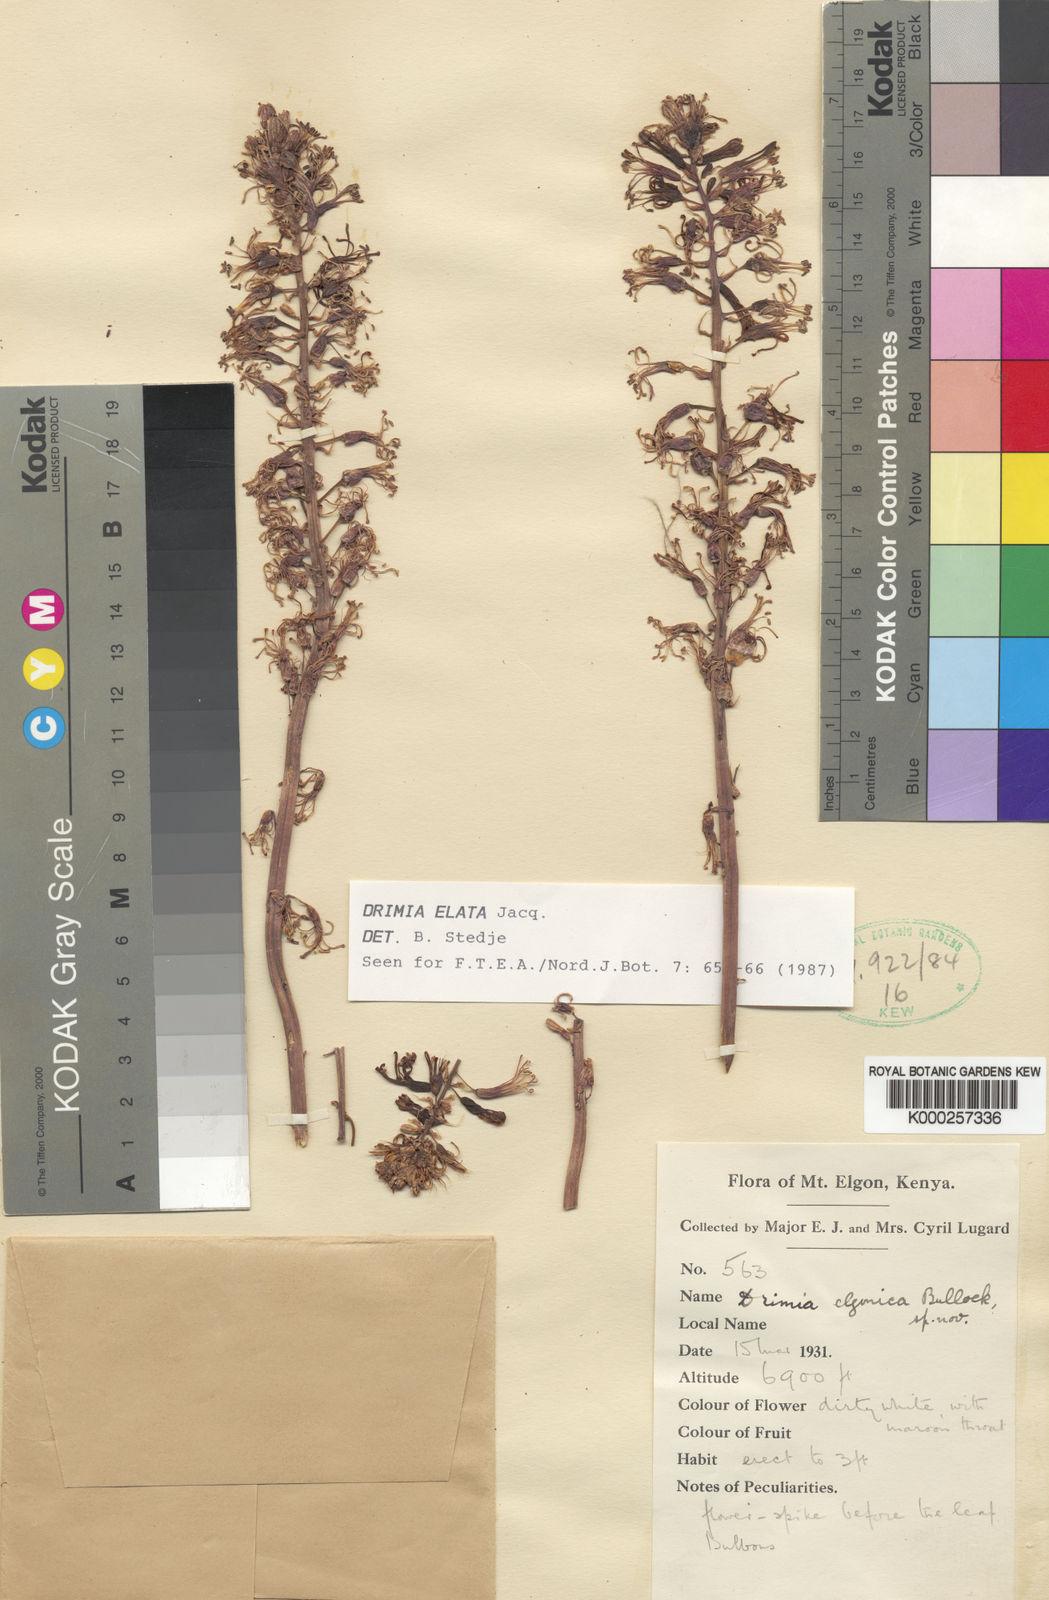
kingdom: Plantae
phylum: Tracheophyta
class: Liliopsida
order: Asparagales
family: Asparagaceae
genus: Drimia
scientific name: Drimia
